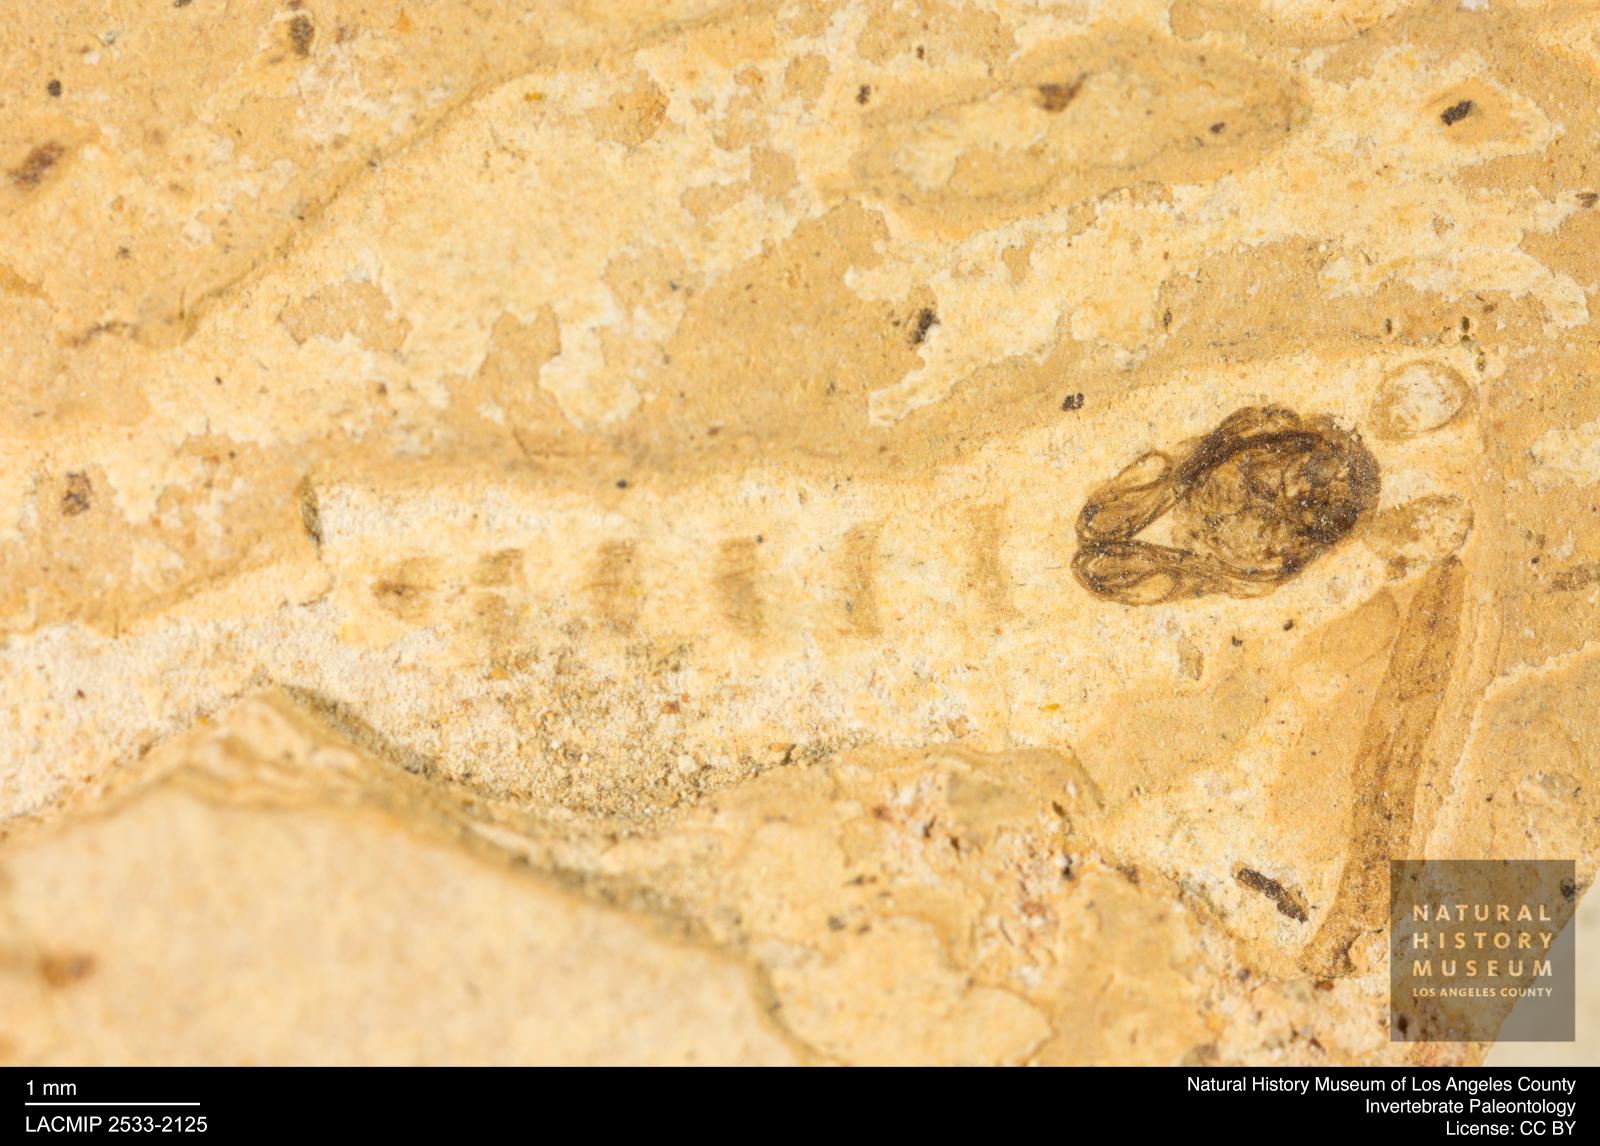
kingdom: Animalia
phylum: Arthropoda
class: Insecta
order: Diptera
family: Chironomidae
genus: Pelopiina
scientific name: Pelopiina
